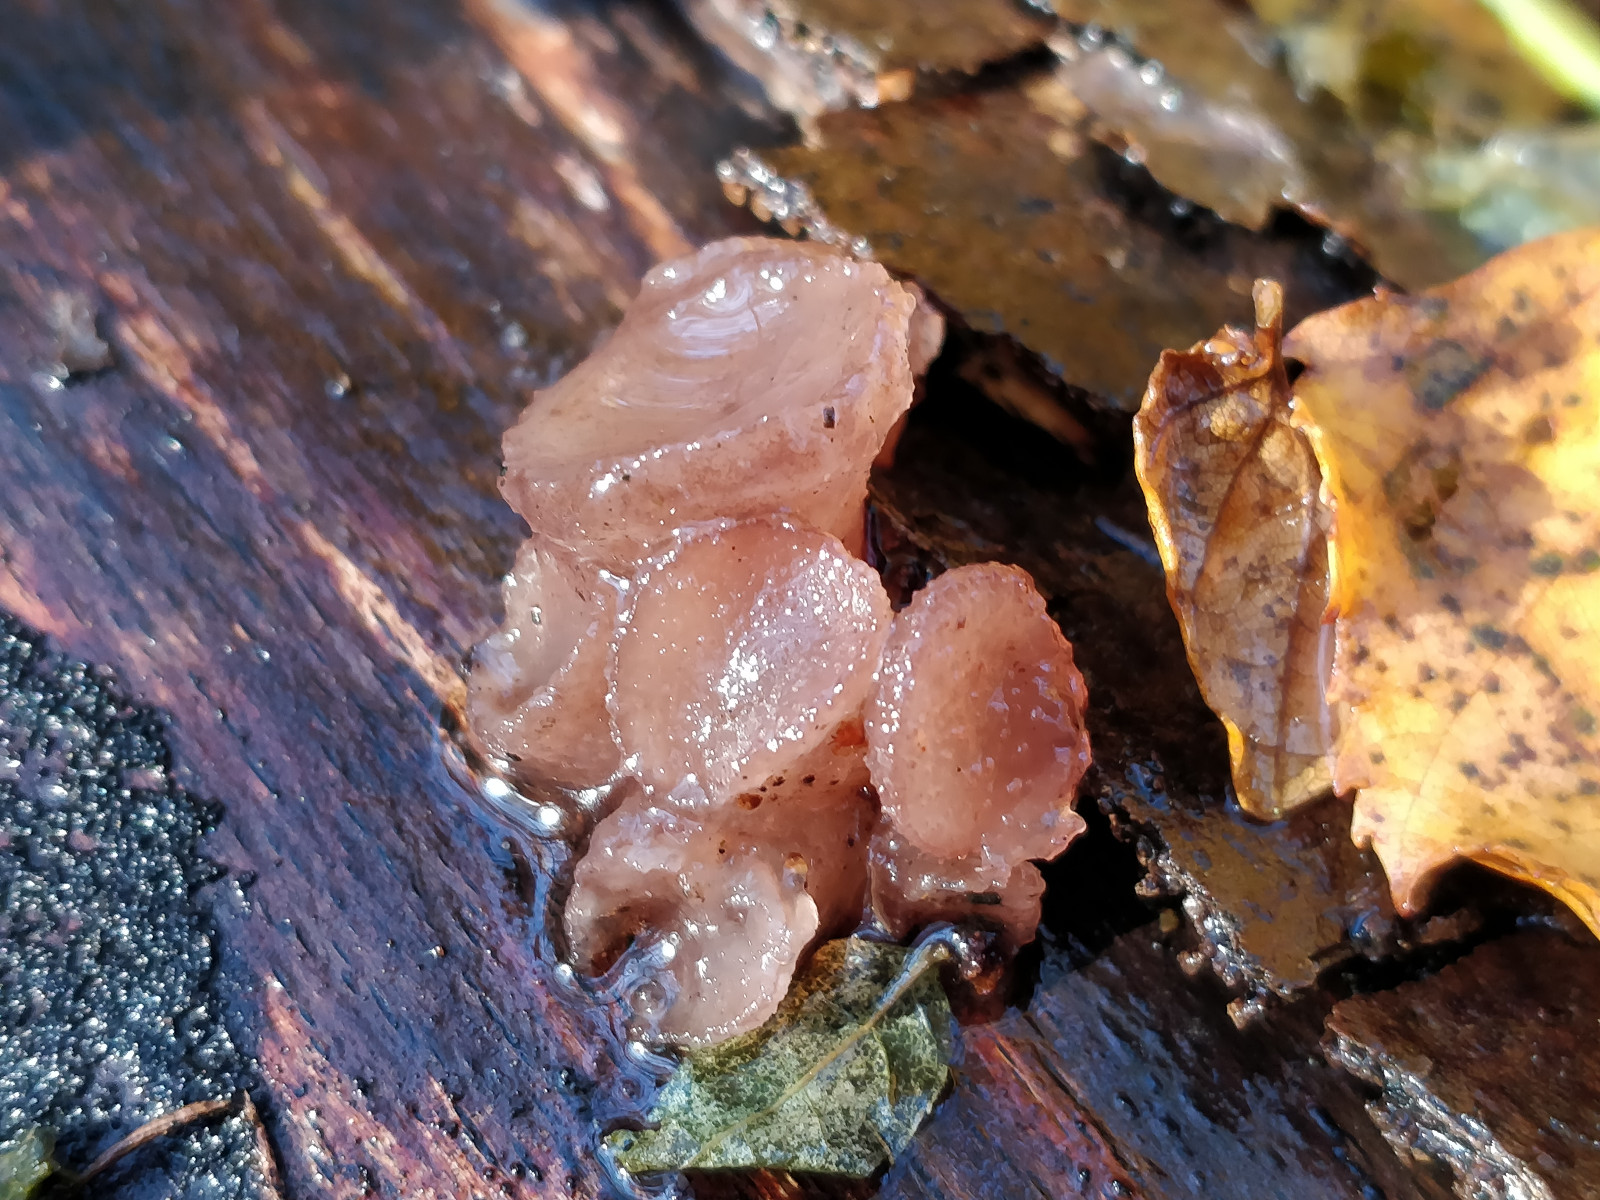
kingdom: Fungi
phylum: Ascomycota
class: Leotiomycetes
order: Helotiales
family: Gelatinodiscaceae
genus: Neobulgaria
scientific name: Neobulgaria pura
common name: bleg bævreskive
